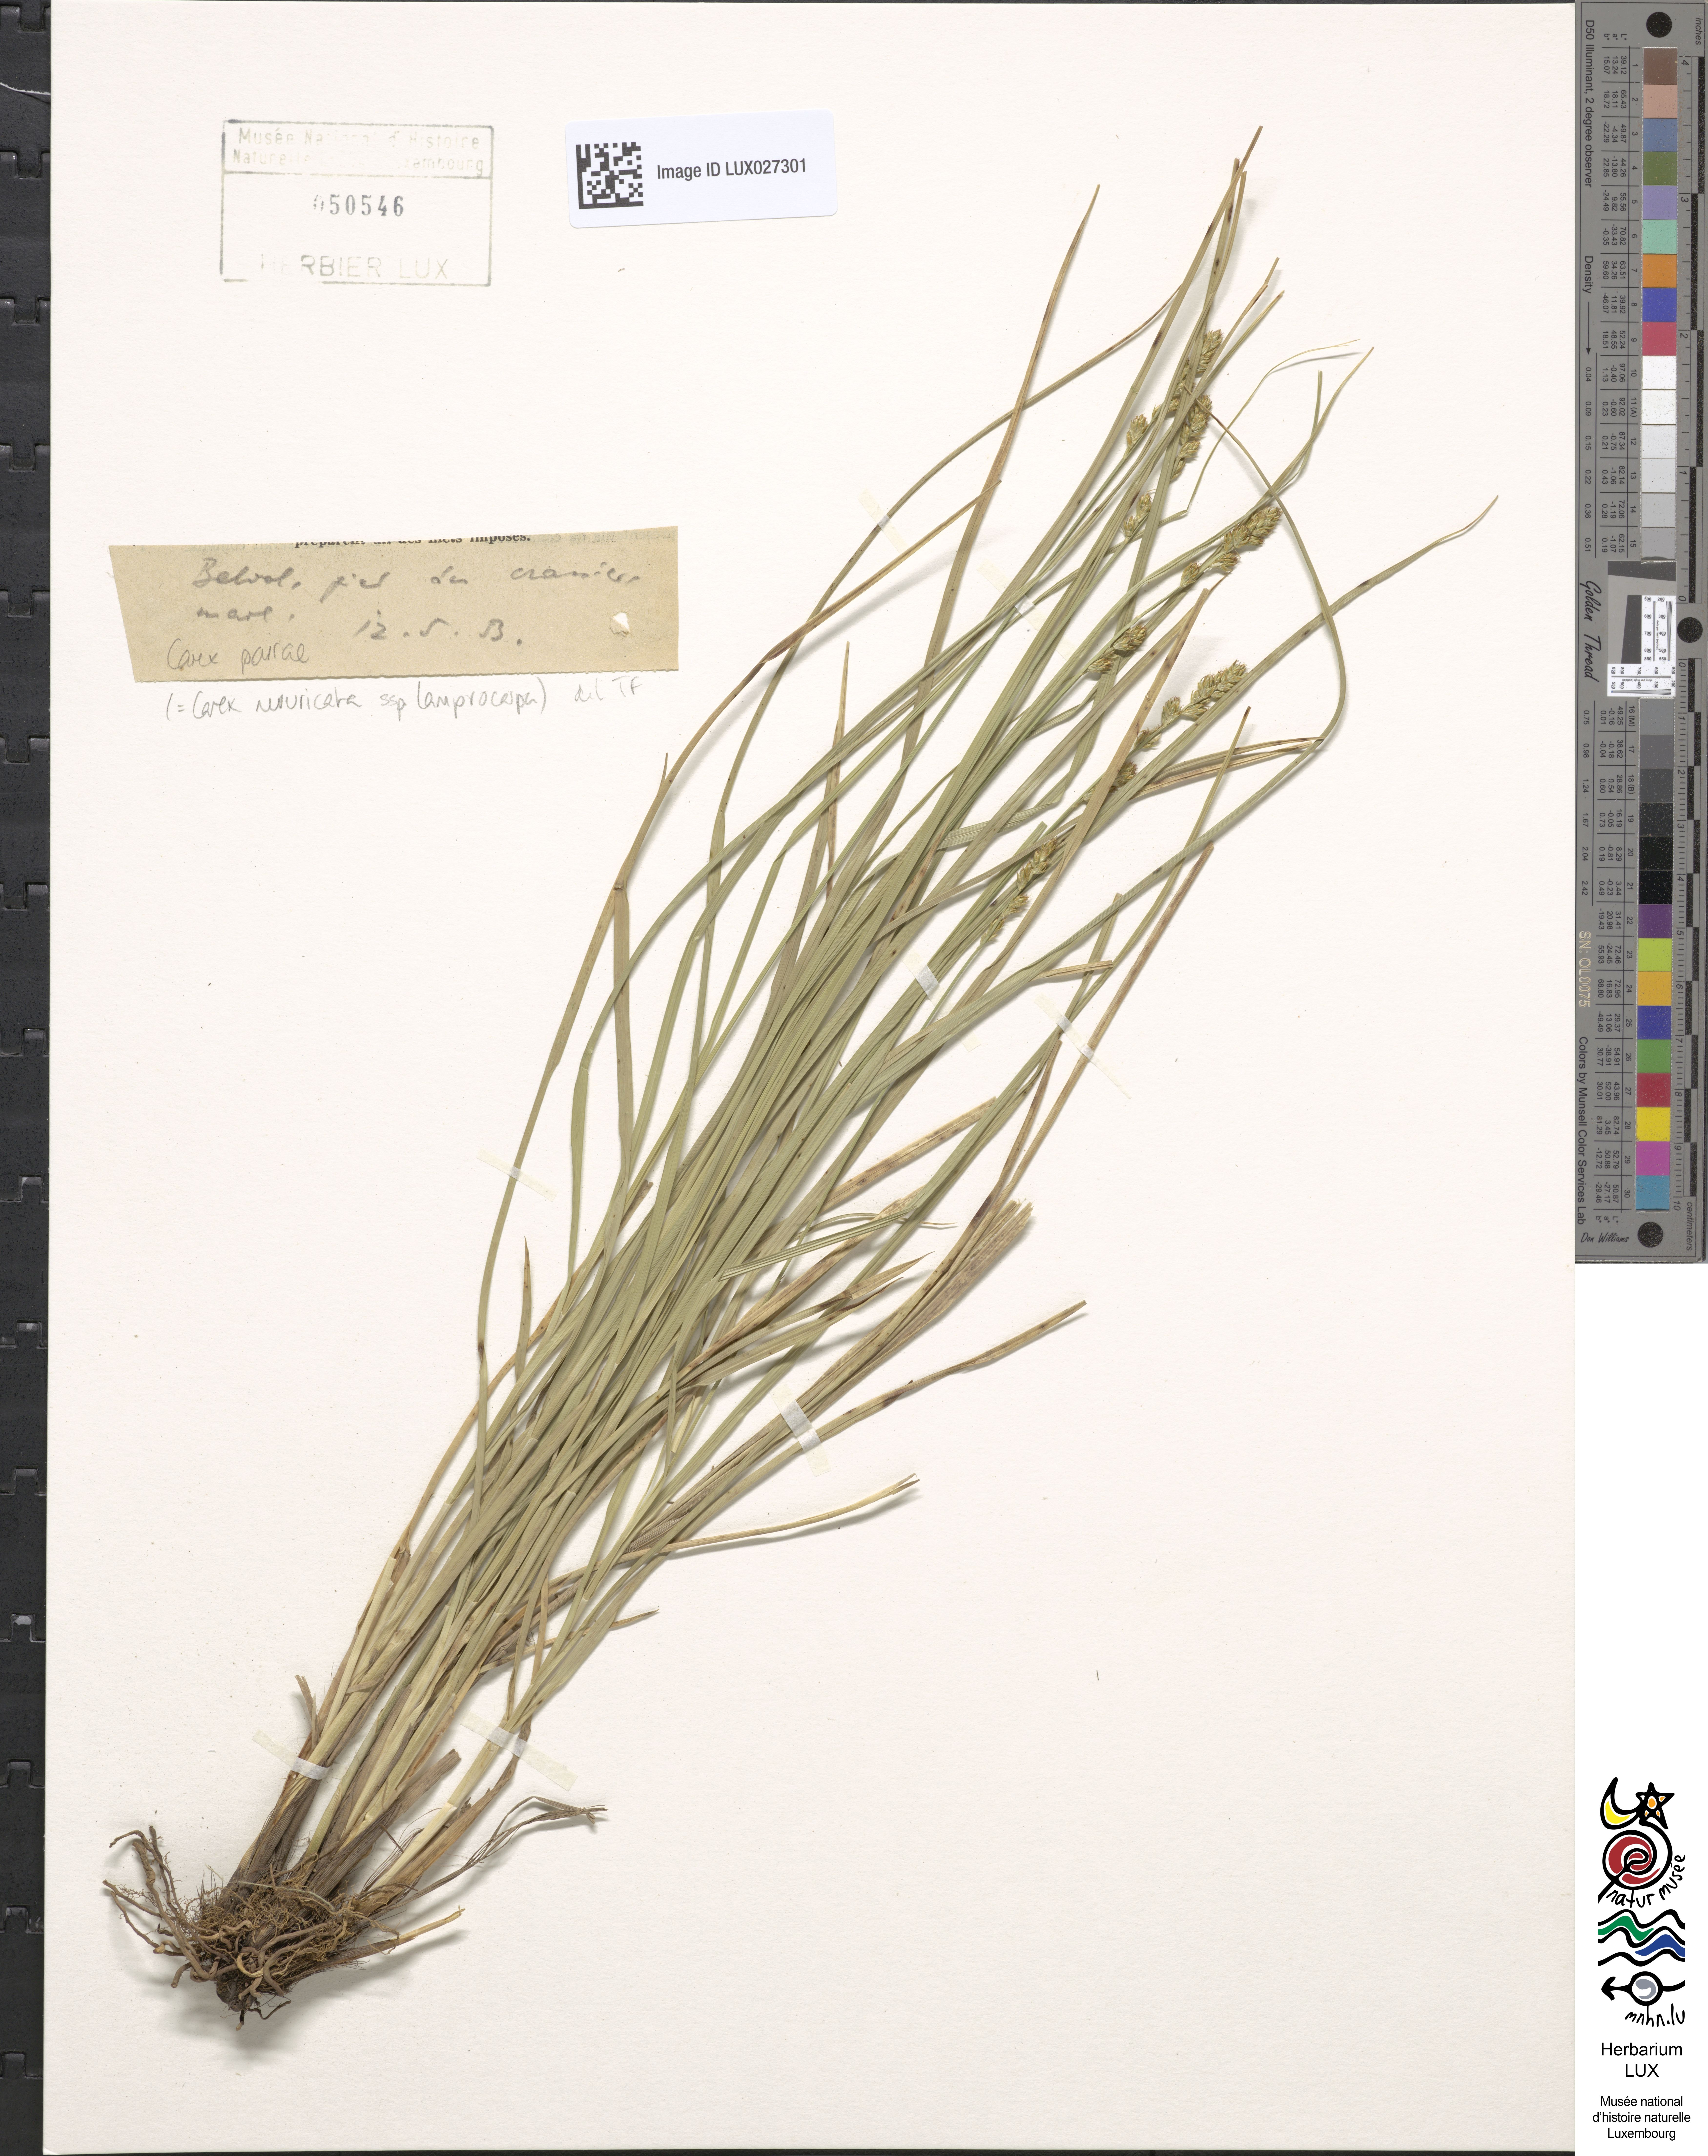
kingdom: Plantae
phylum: Tracheophyta
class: Liliopsida
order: Poales
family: Cyperaceae
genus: Carex
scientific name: Carex pairae
